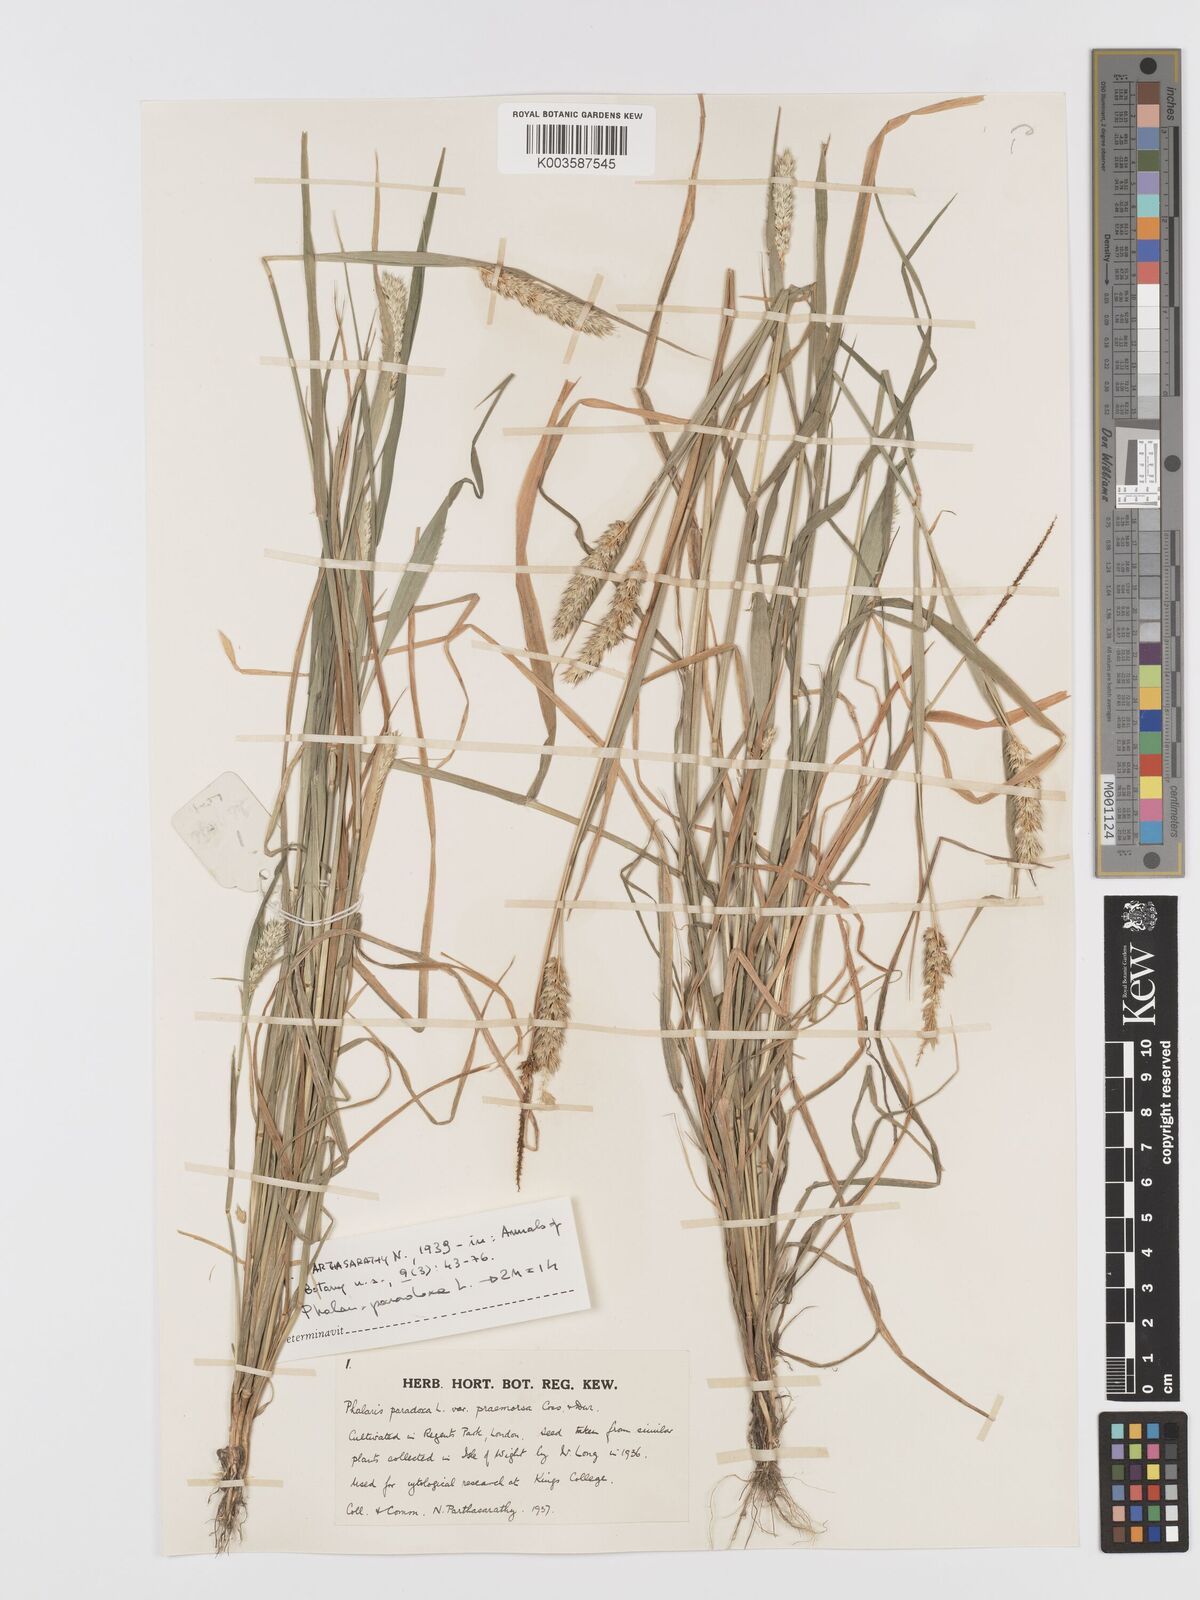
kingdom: Plantae
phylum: Tracheophyta
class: Liliopsida
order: Poales
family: Poaceae
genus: Phalaris
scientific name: Phalaris paradoxa
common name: Awned canary-grass
